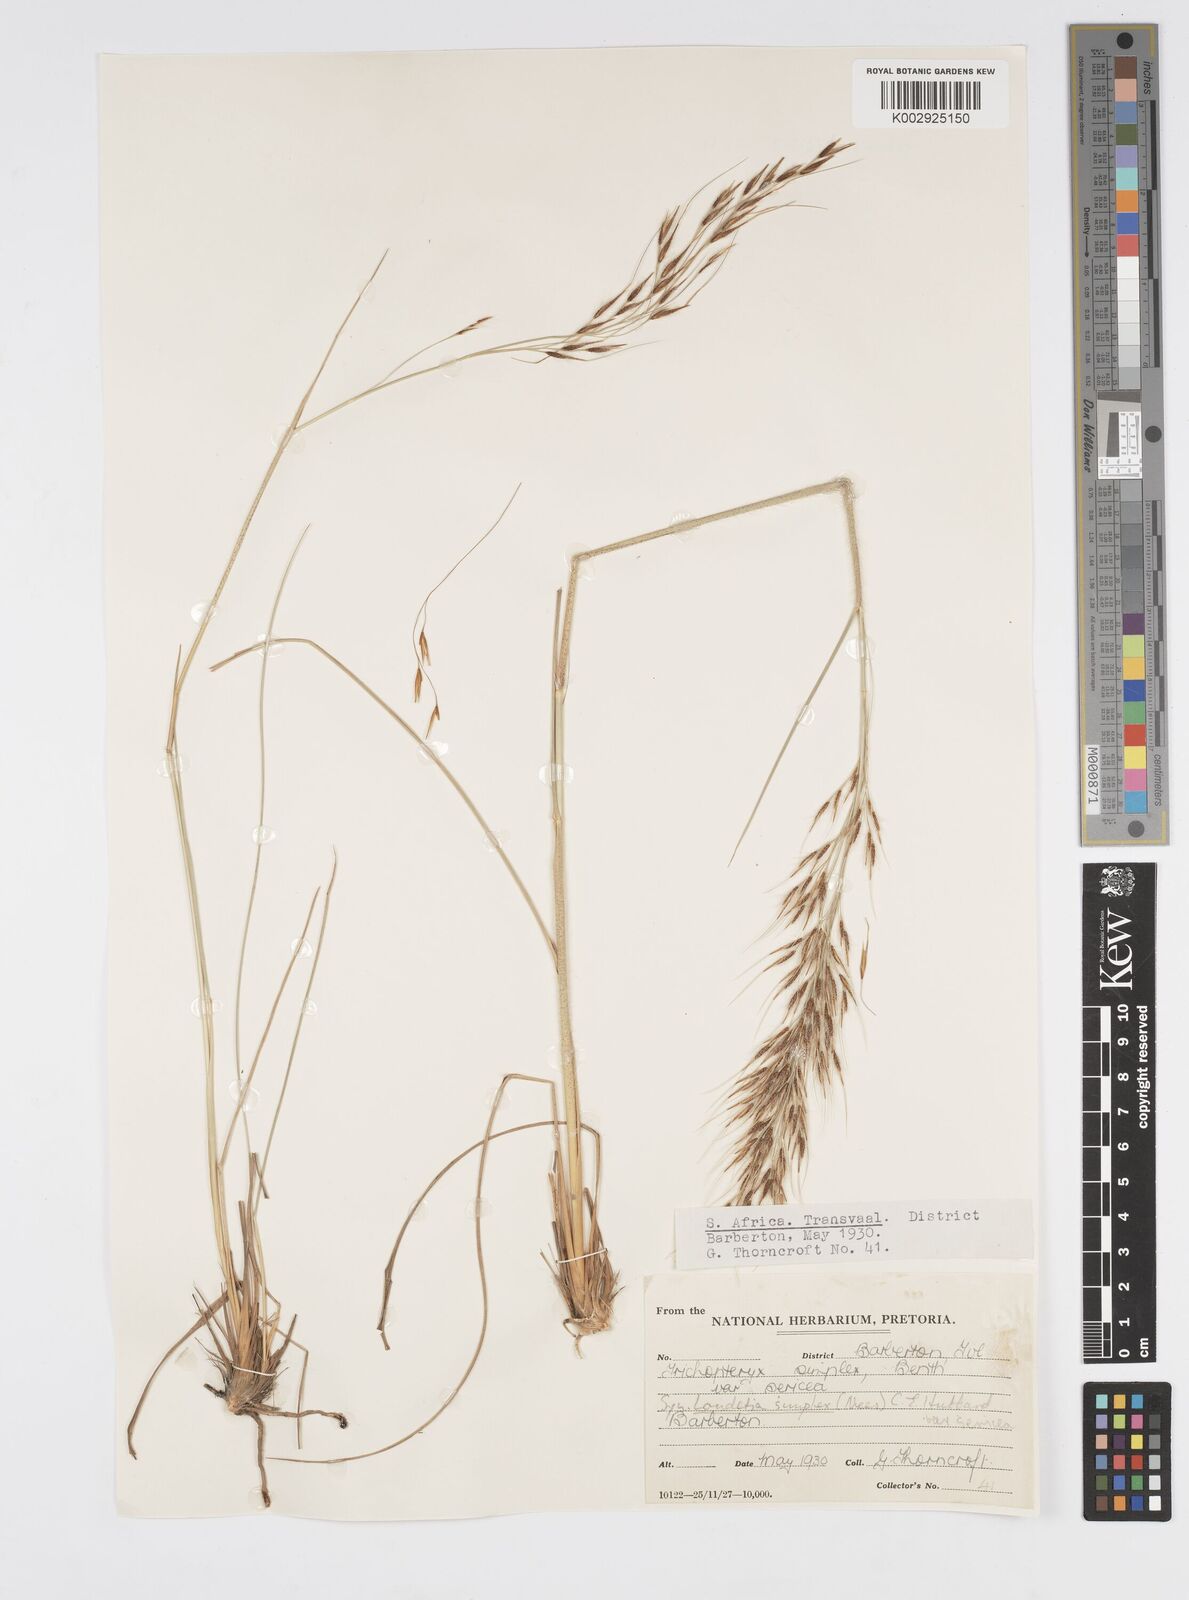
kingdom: Plantae
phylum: Tracheophyta
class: Liliopsida
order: Poales
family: Poaceae
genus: Loudetia
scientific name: Loudetia simplex
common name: Common russet grass
